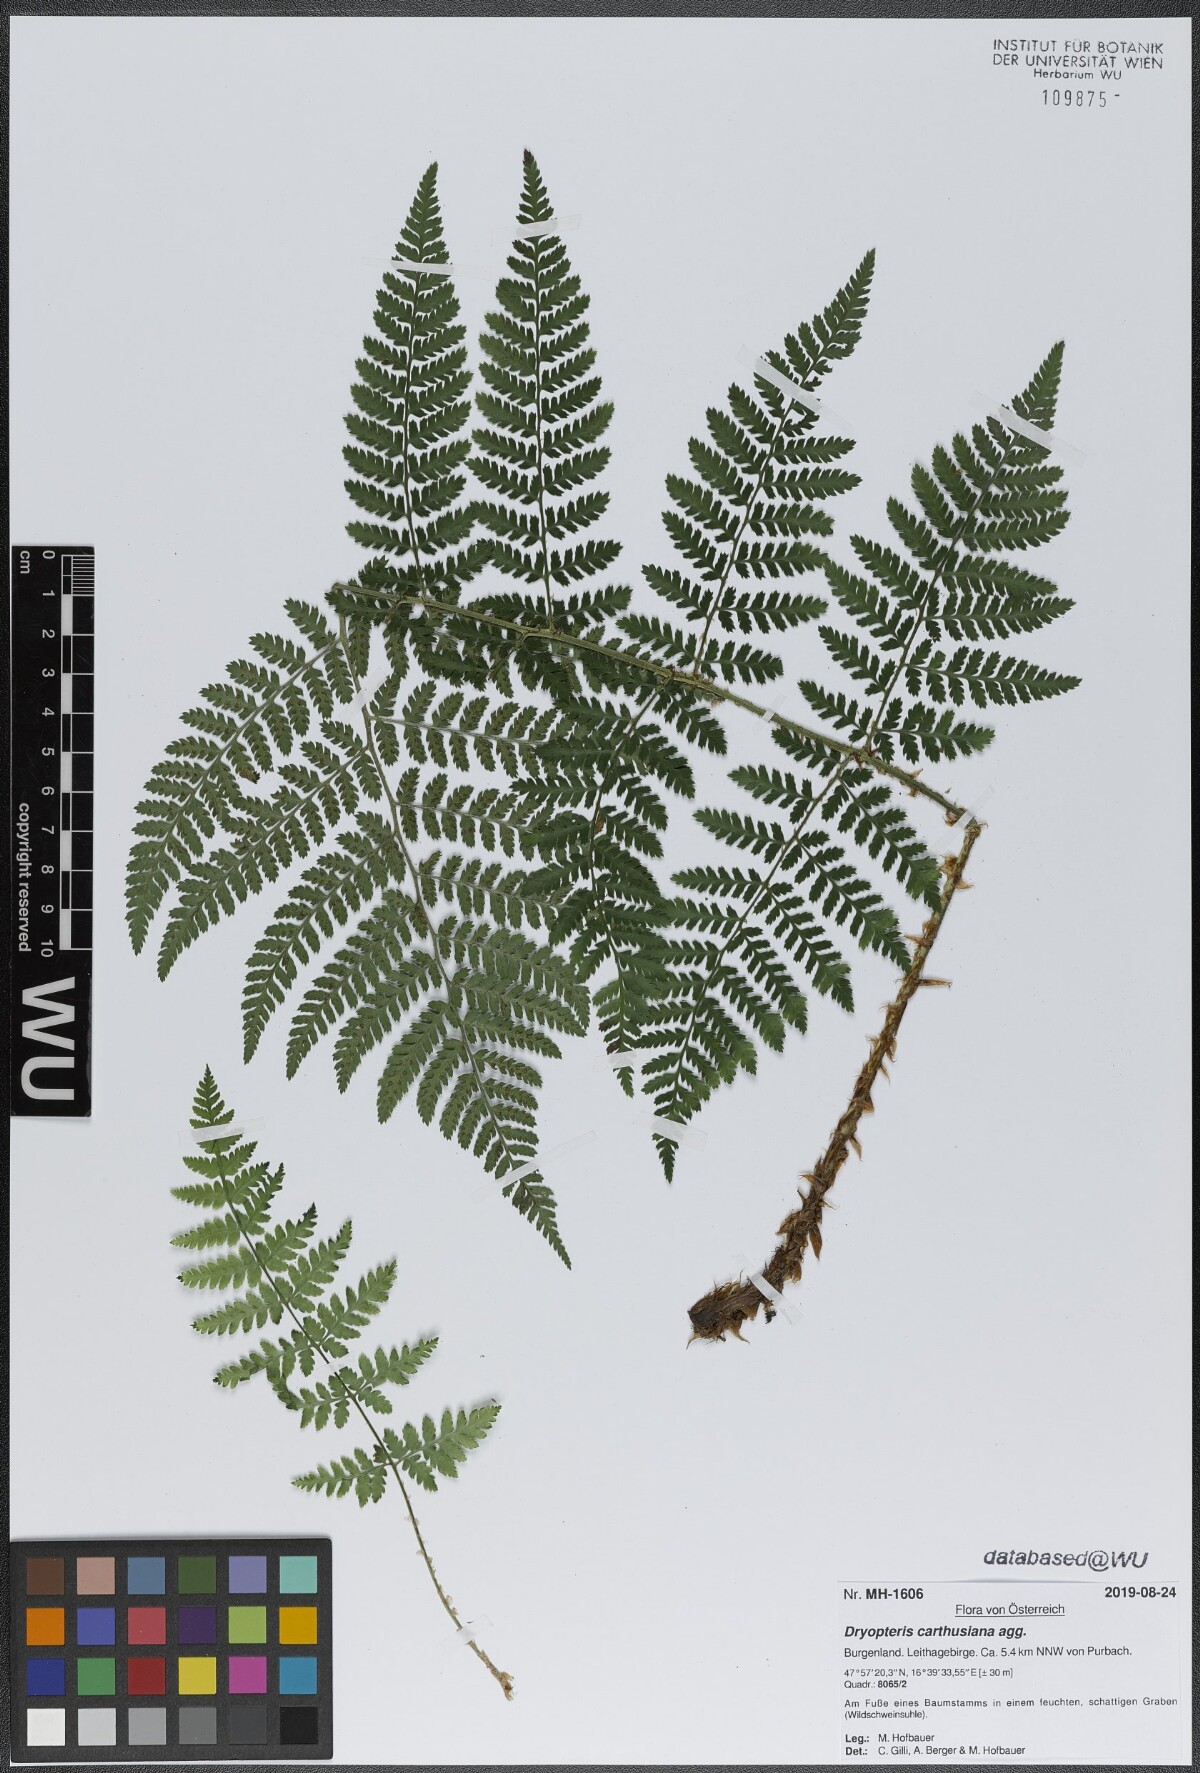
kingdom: Plantae
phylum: Tracheophyta
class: Polypodiopsida
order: Polypodiales
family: Dryopteridaceae
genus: Dryopteris
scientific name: Dryopteris carthusiana
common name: Narrow buckler-fern
